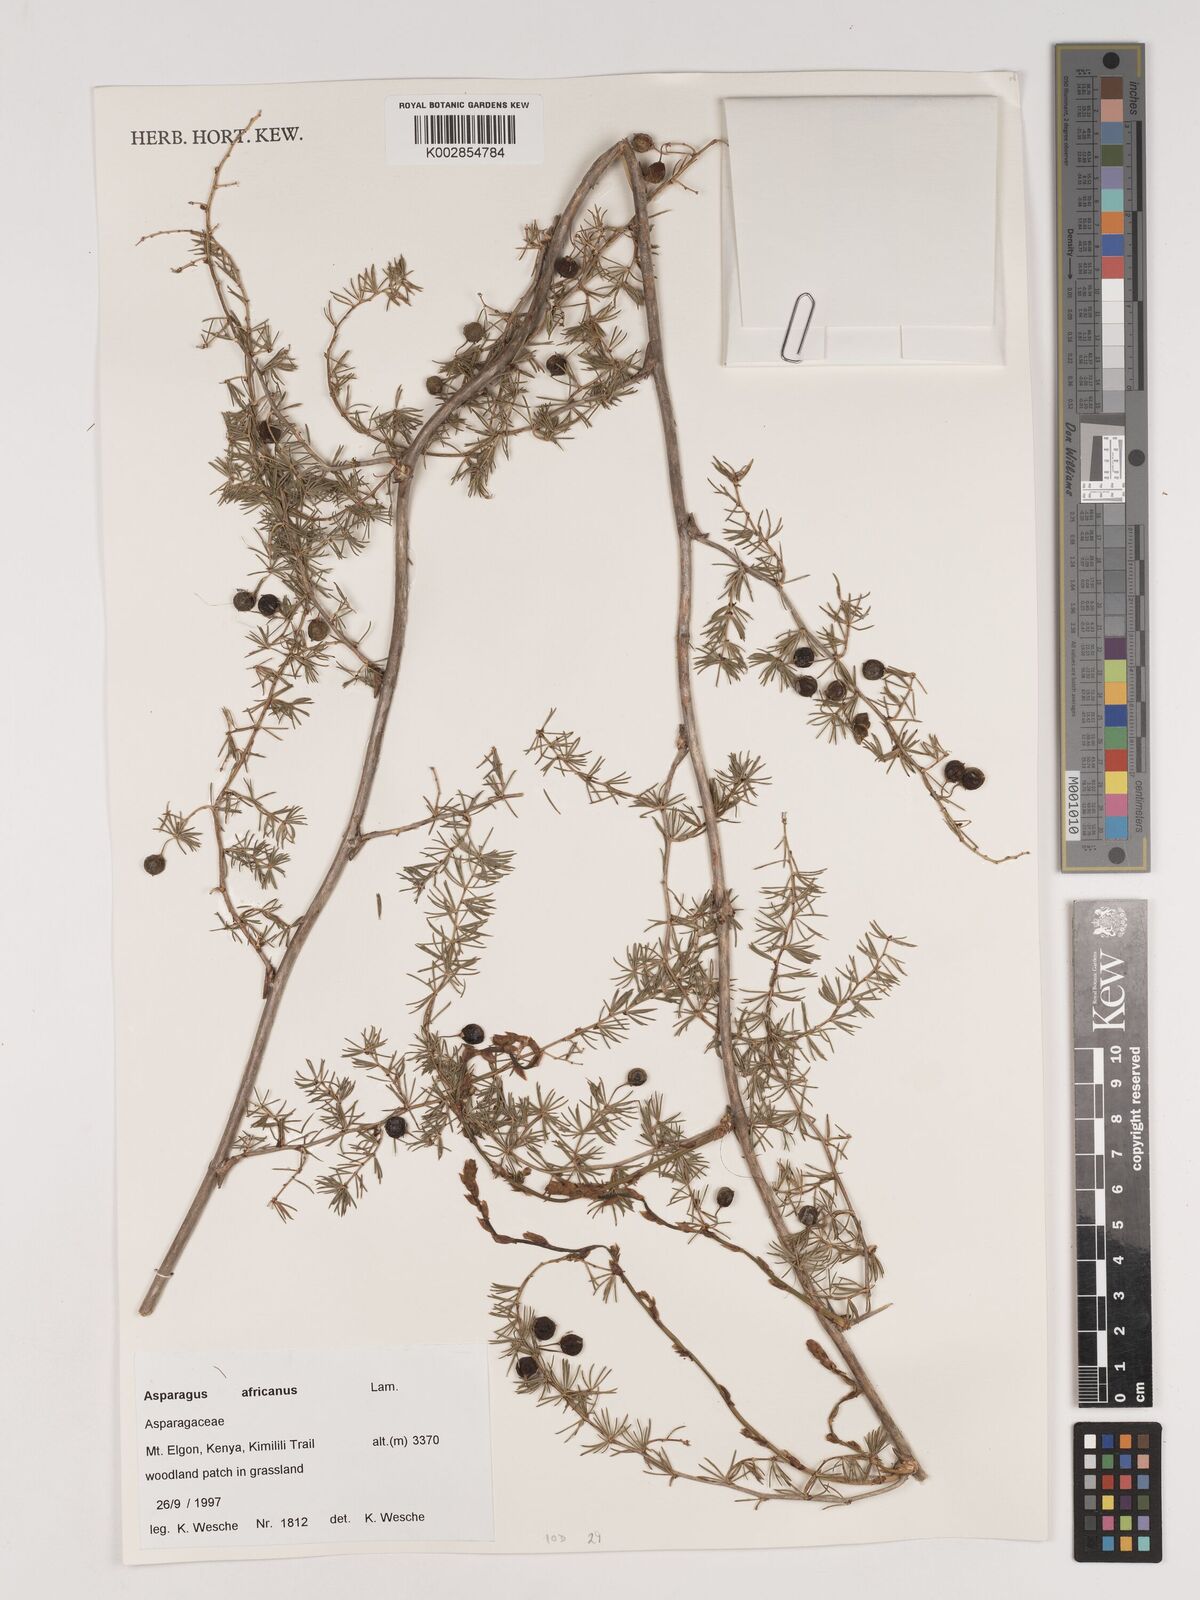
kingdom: Plantae
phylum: Tracheophyta
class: Liliopsida
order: Asparagales
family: Asparagaceae
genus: Asparagus
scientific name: Asparagus africanus
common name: Asparagus-fern
